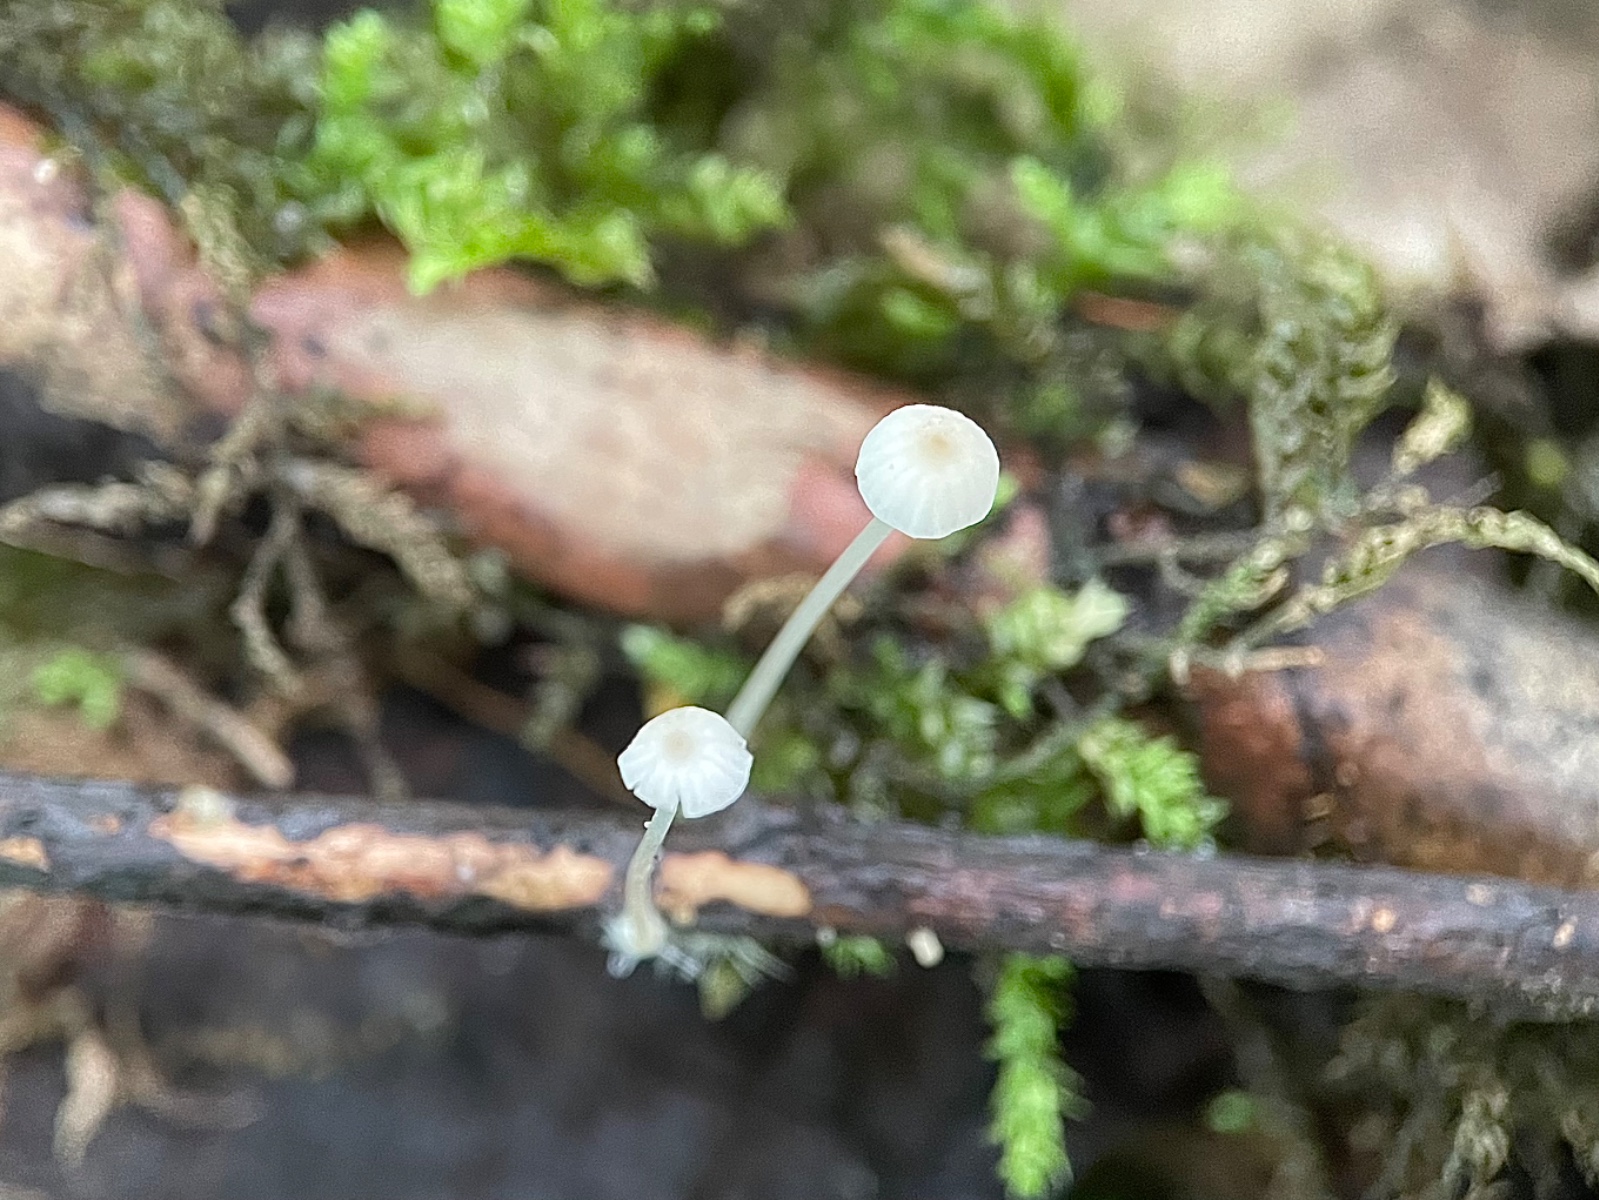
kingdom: Fungi
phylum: Basidiomycota
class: Agaricomycetes
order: Agaricales
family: Porotheleaceae
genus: Phloeomana
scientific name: Phloeomana speirea
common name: kvist-huesvamp
